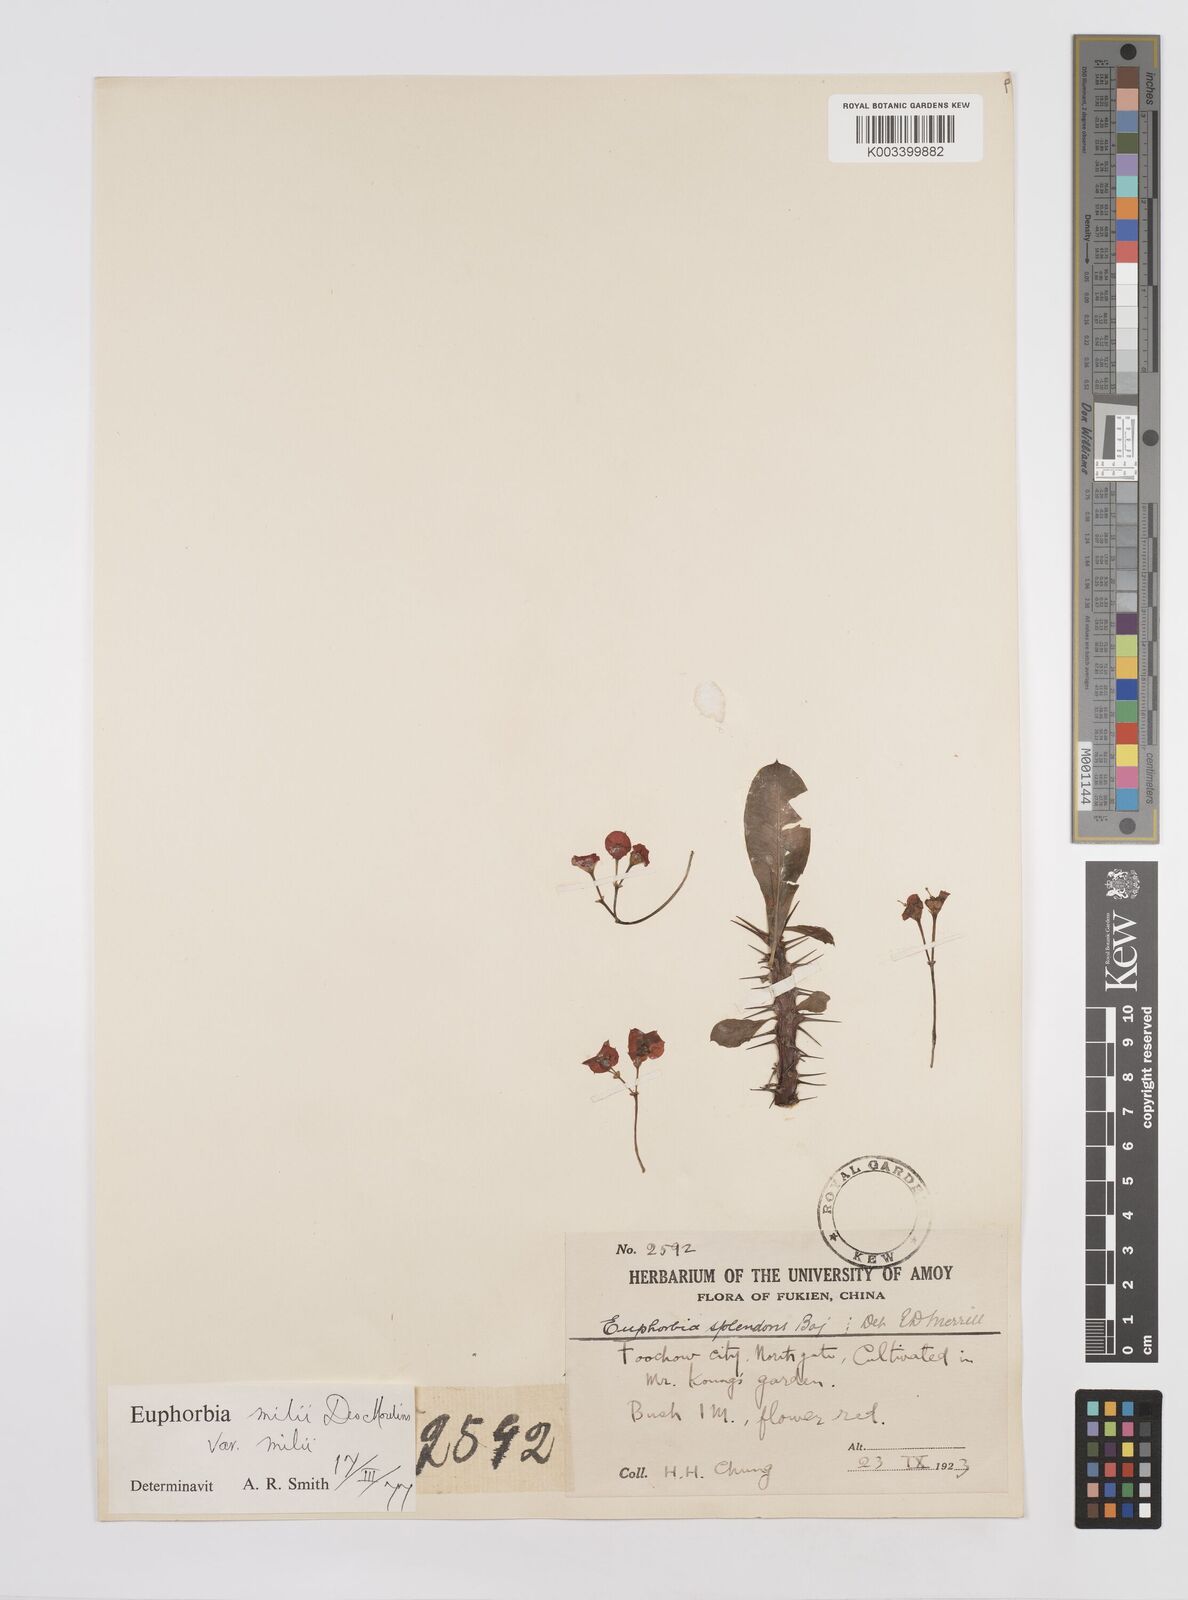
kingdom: Plantae
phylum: Tracheophyta
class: Magnoliopsida
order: Malpighiales
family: Euphorbiaceae
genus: Euphorbia
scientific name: Euphorbia milii
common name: Christplant
